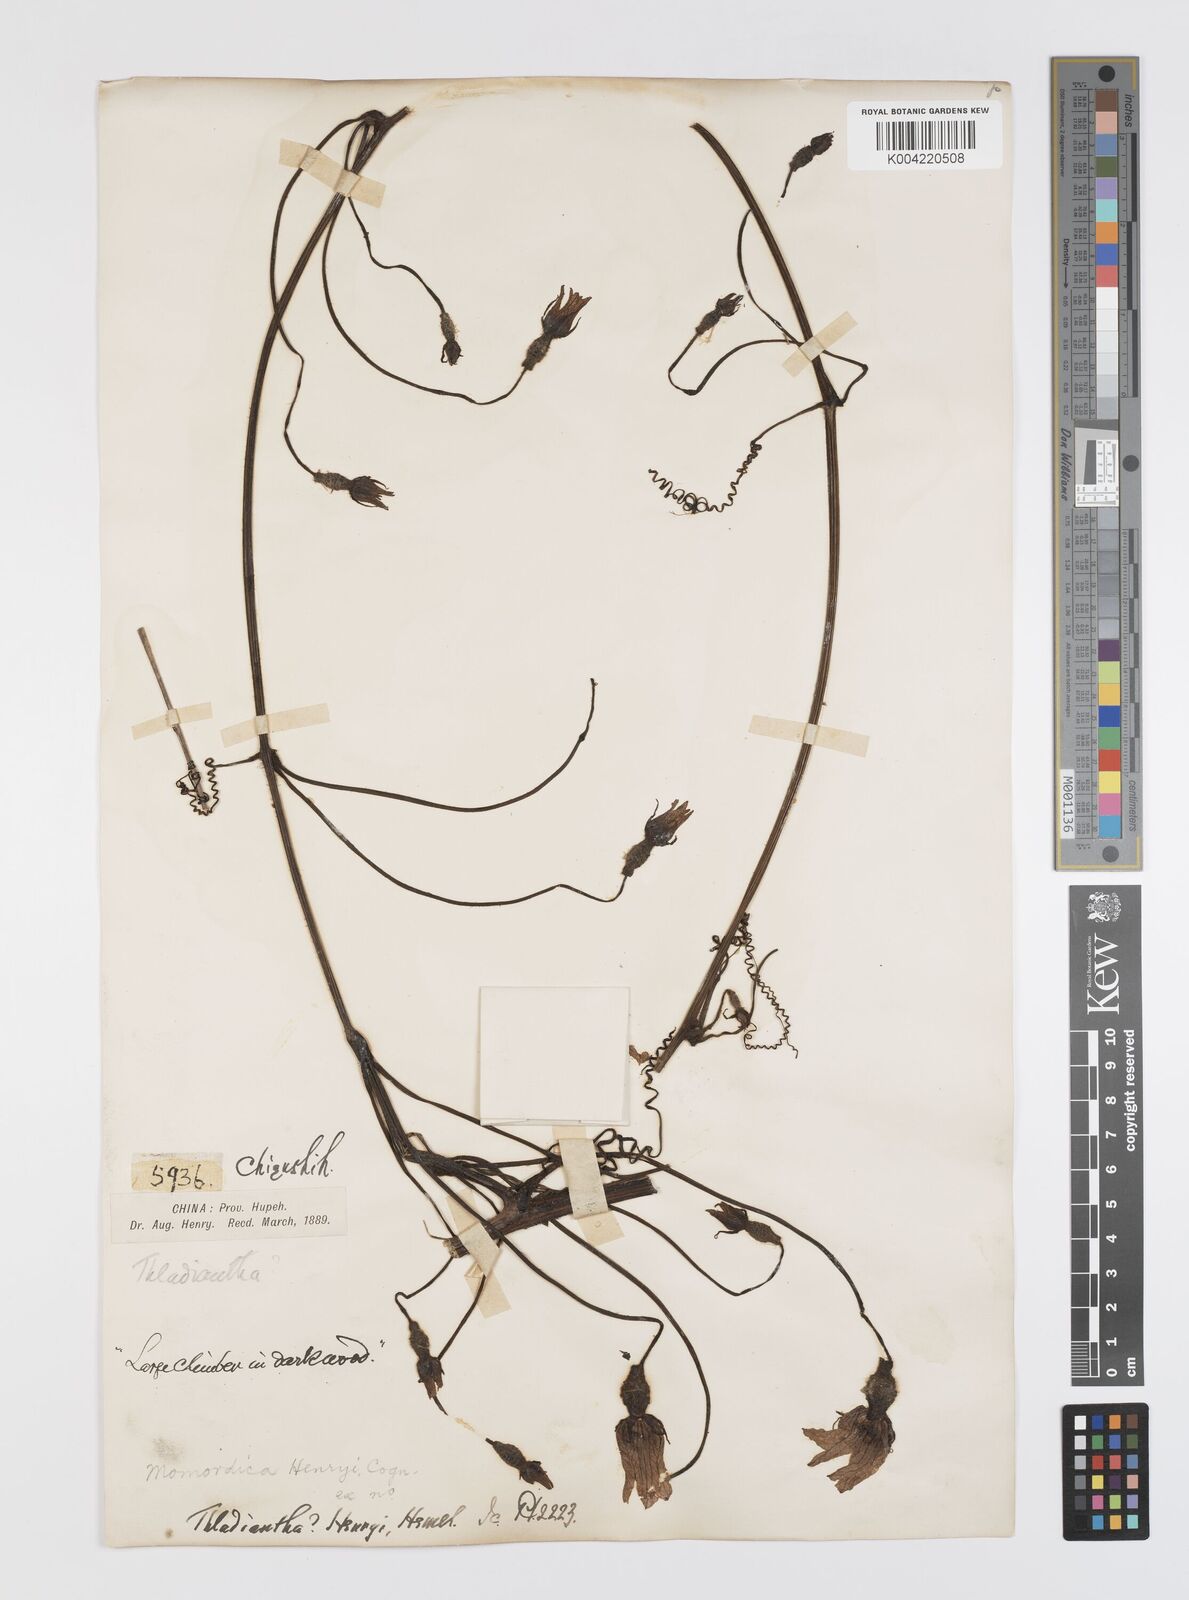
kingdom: Plantae
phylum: Tracheophyta
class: Magnoliopsida
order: Cucurbitales
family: Cucurbitaceae
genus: Thladiantha
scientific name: Thladiantha henryi
